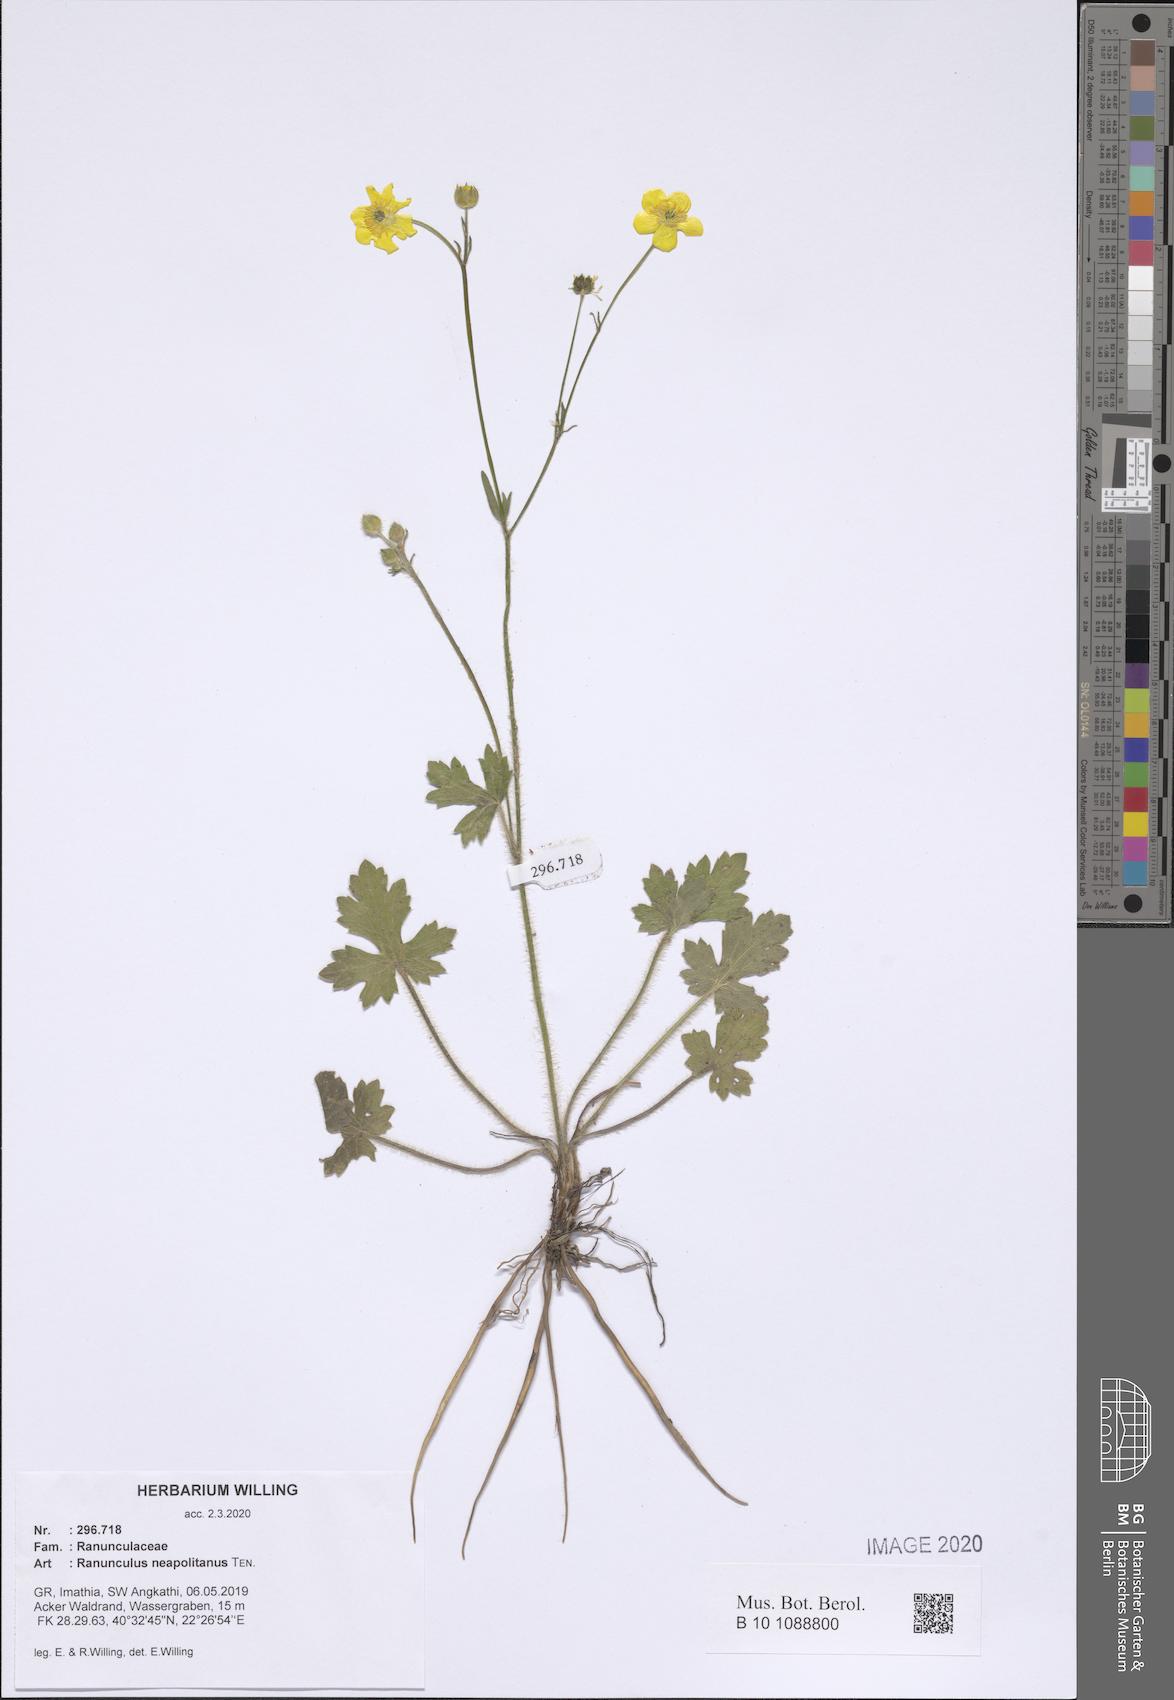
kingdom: Plantae
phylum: Tracheophyta
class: Magnoliopsida
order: Ranunculales
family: Ranunculaceae
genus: Ranunculus
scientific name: Ranunculus neapolitanus
